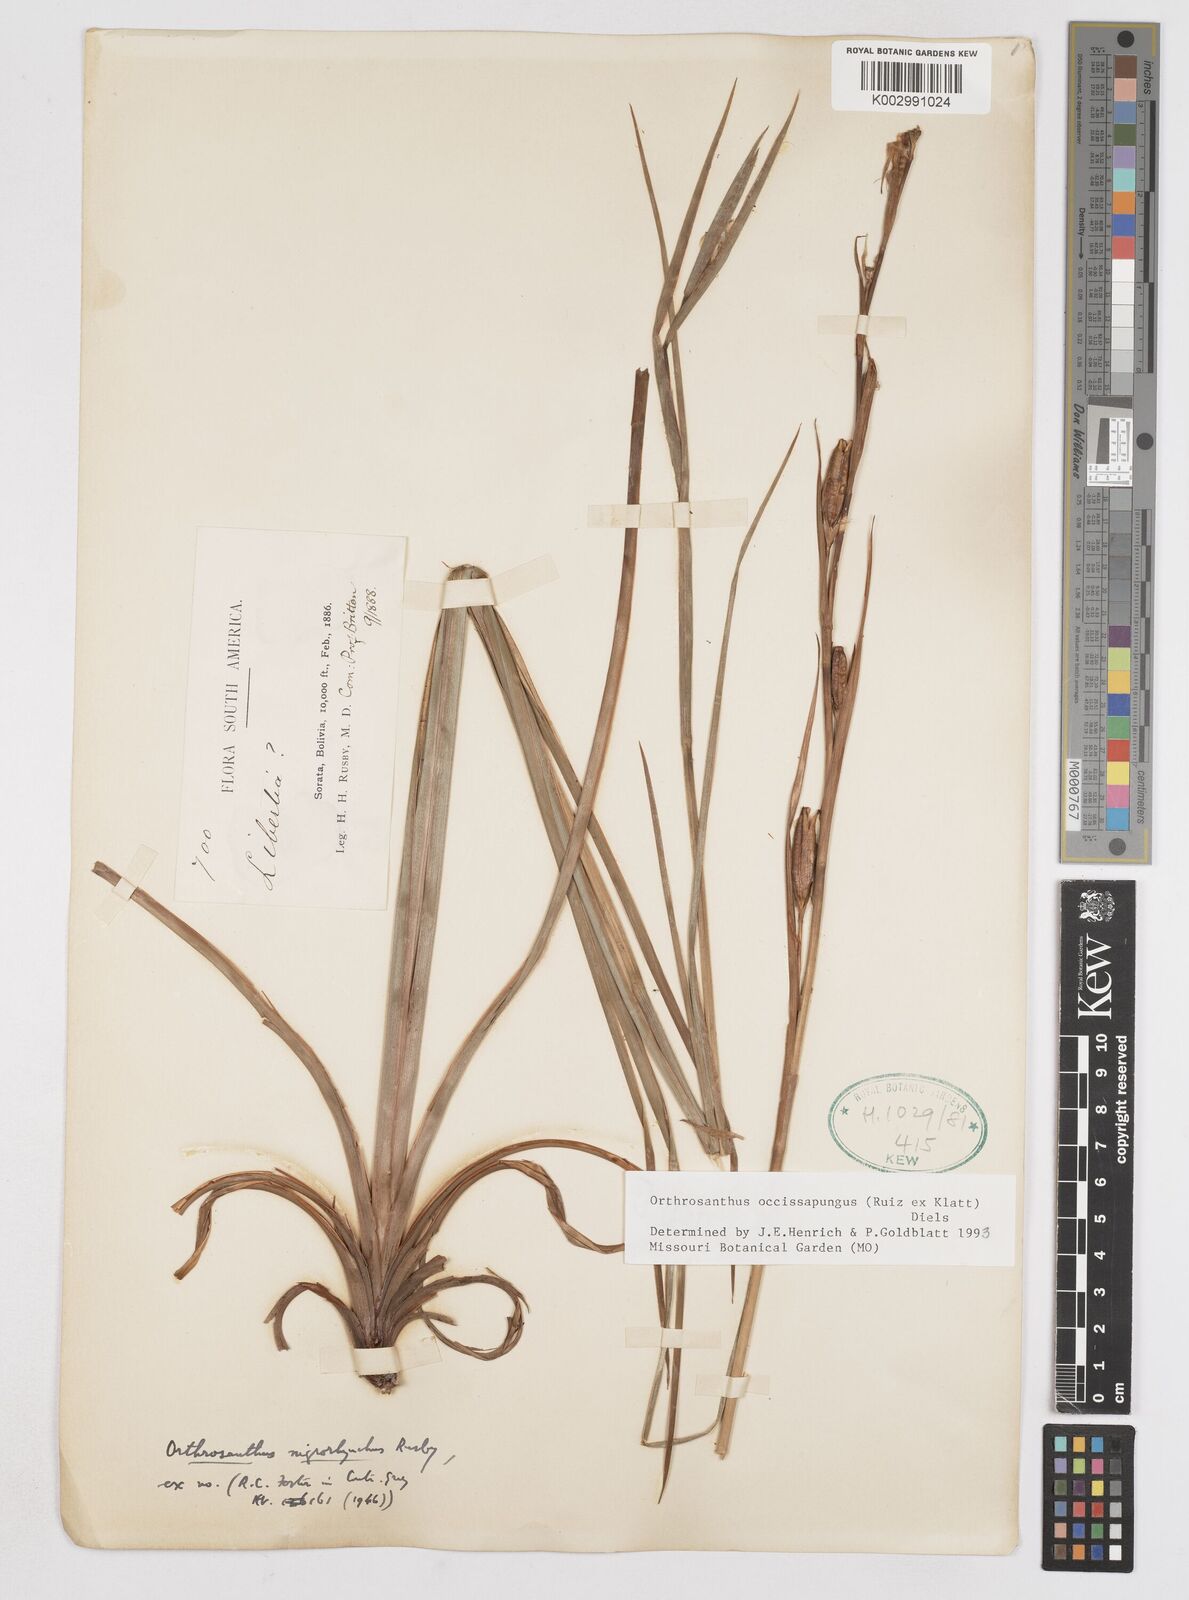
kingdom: Plantae
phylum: Tracheophyta
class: Liliopsida
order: Asparagales
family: Iridaceae
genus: Orthrosanthus
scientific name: Orthrosanthus occissapungus
